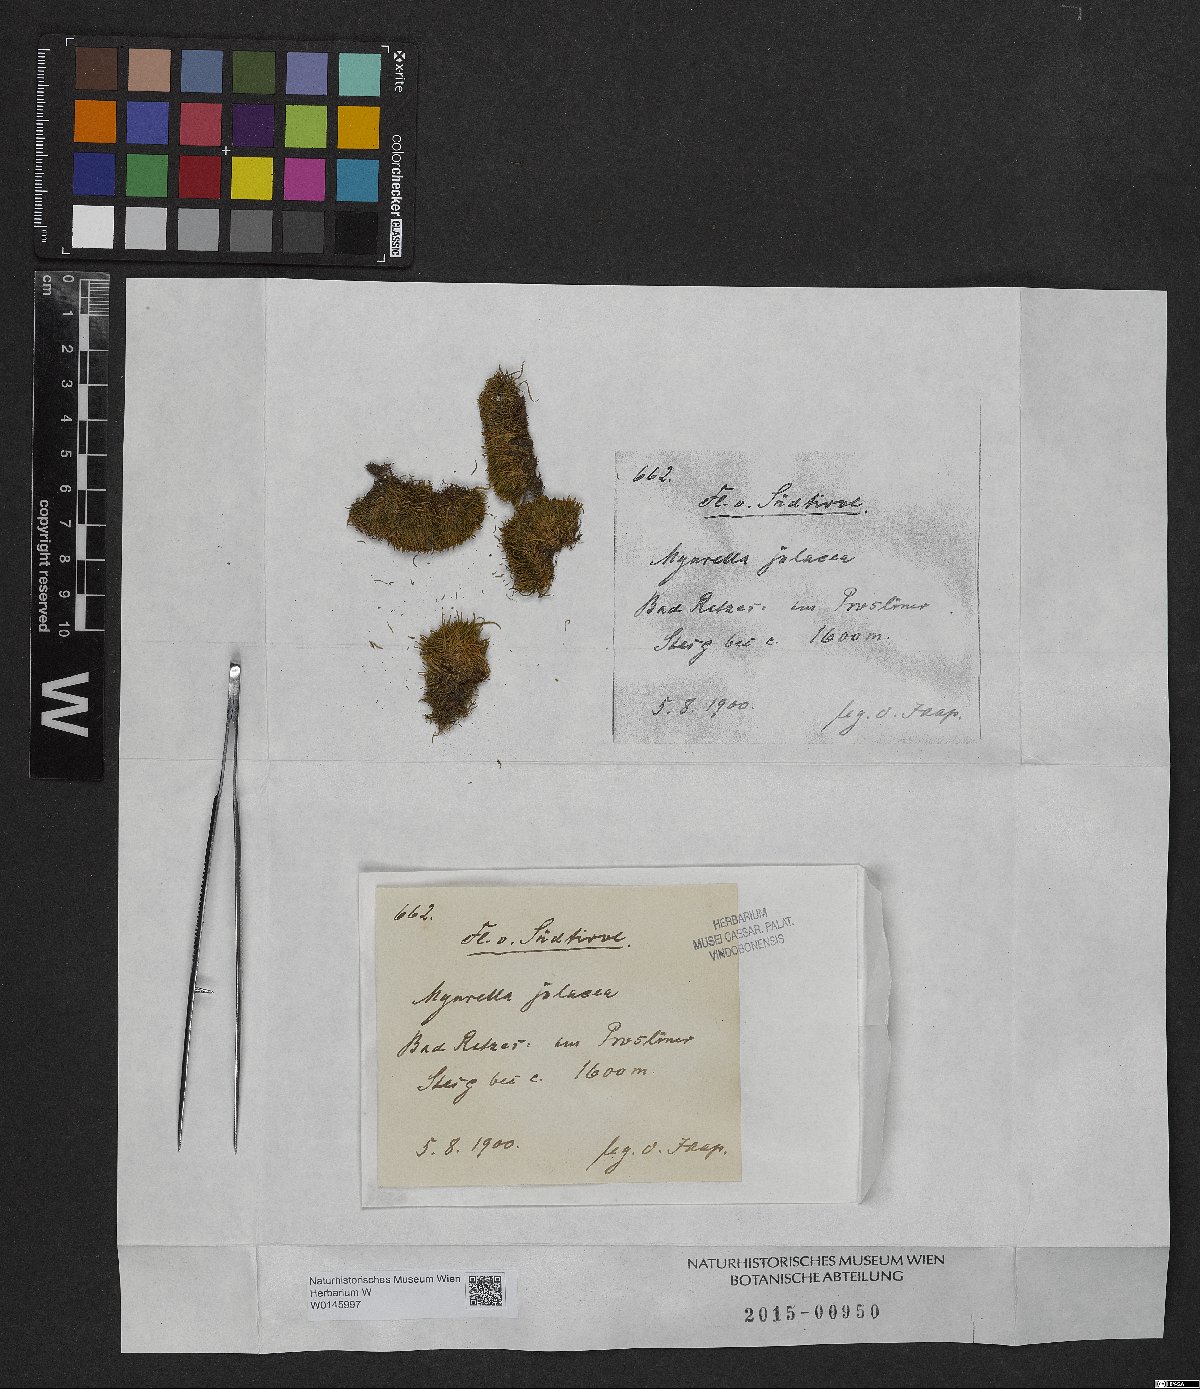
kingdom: Plantae
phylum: Bryophyta
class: Bryopsida
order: Hypnales
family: Plagiotheciaceae
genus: Myurella
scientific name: Myurella julacea
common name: Small mousetail moss
